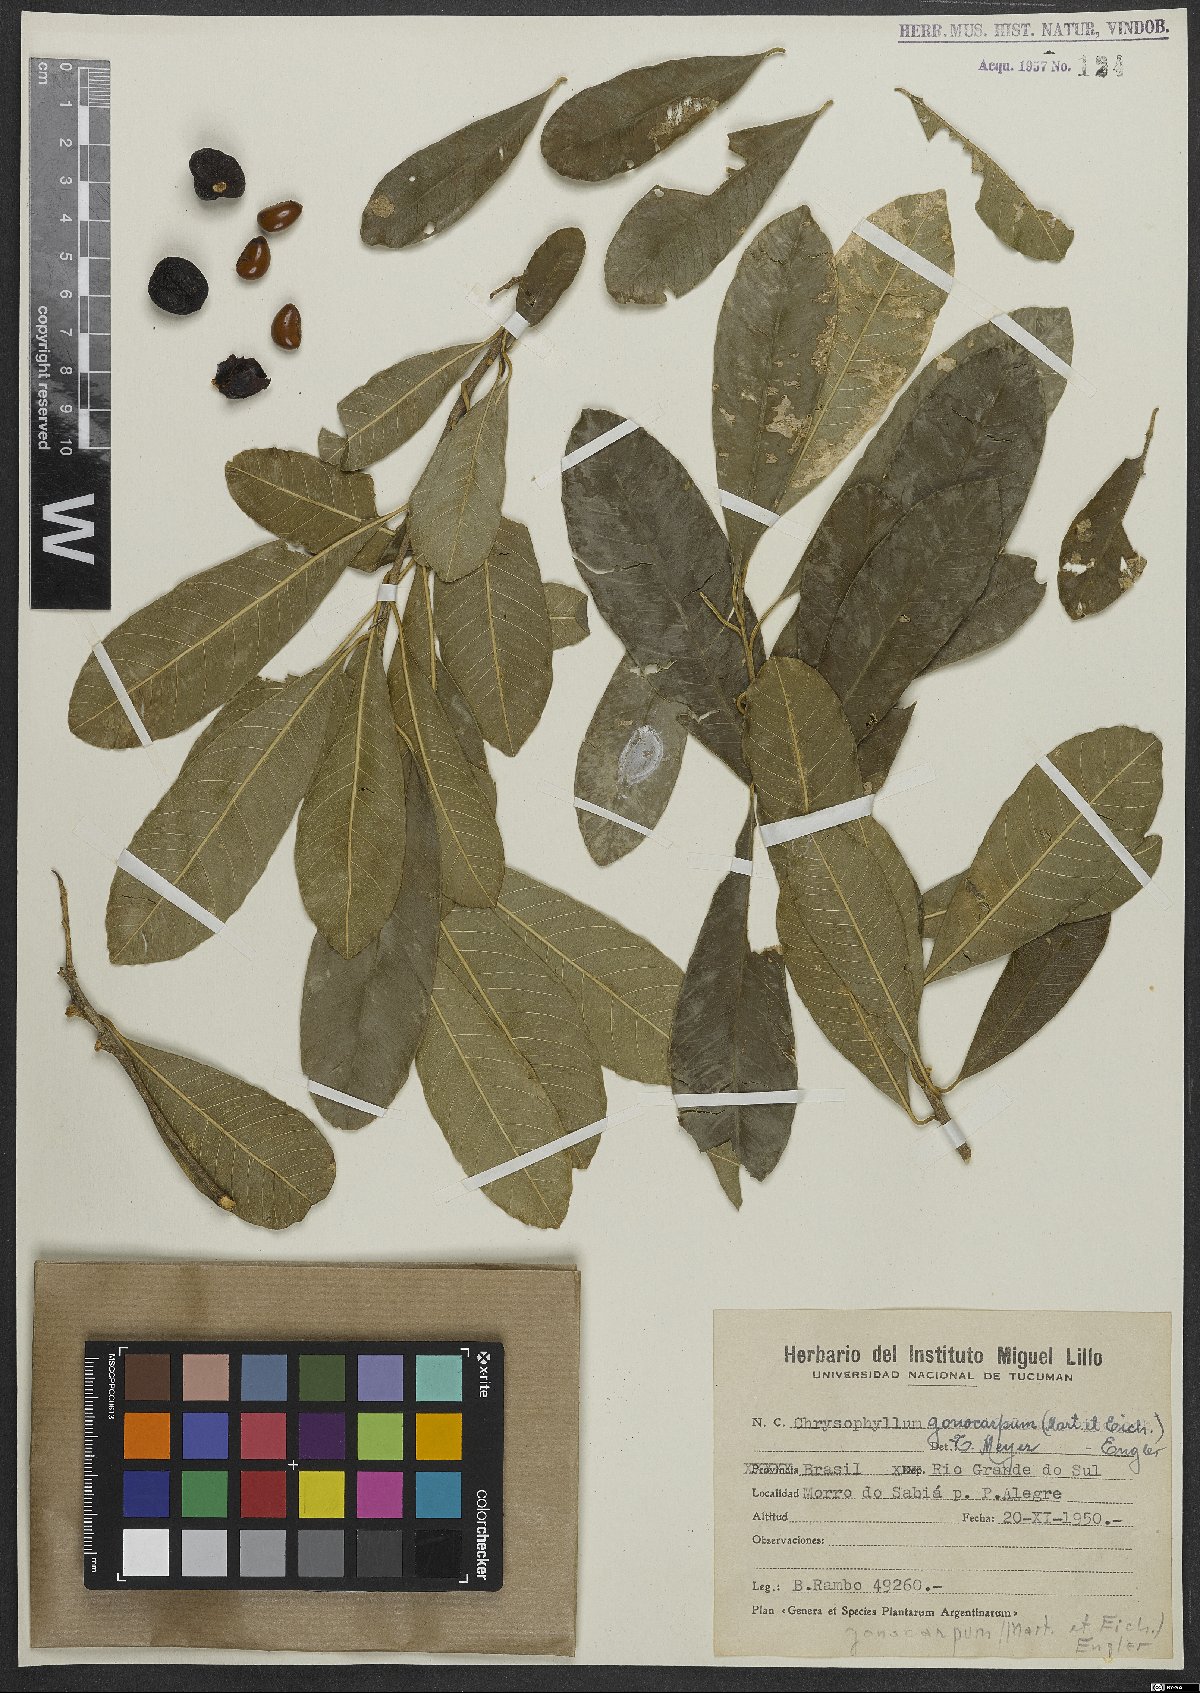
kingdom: Plantae
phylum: Tracheophyta
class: Magnoliopsida
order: Ericales
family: Sapotaceae
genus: Chrysophyllum
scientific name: Chrysophyllum gonocarpum
